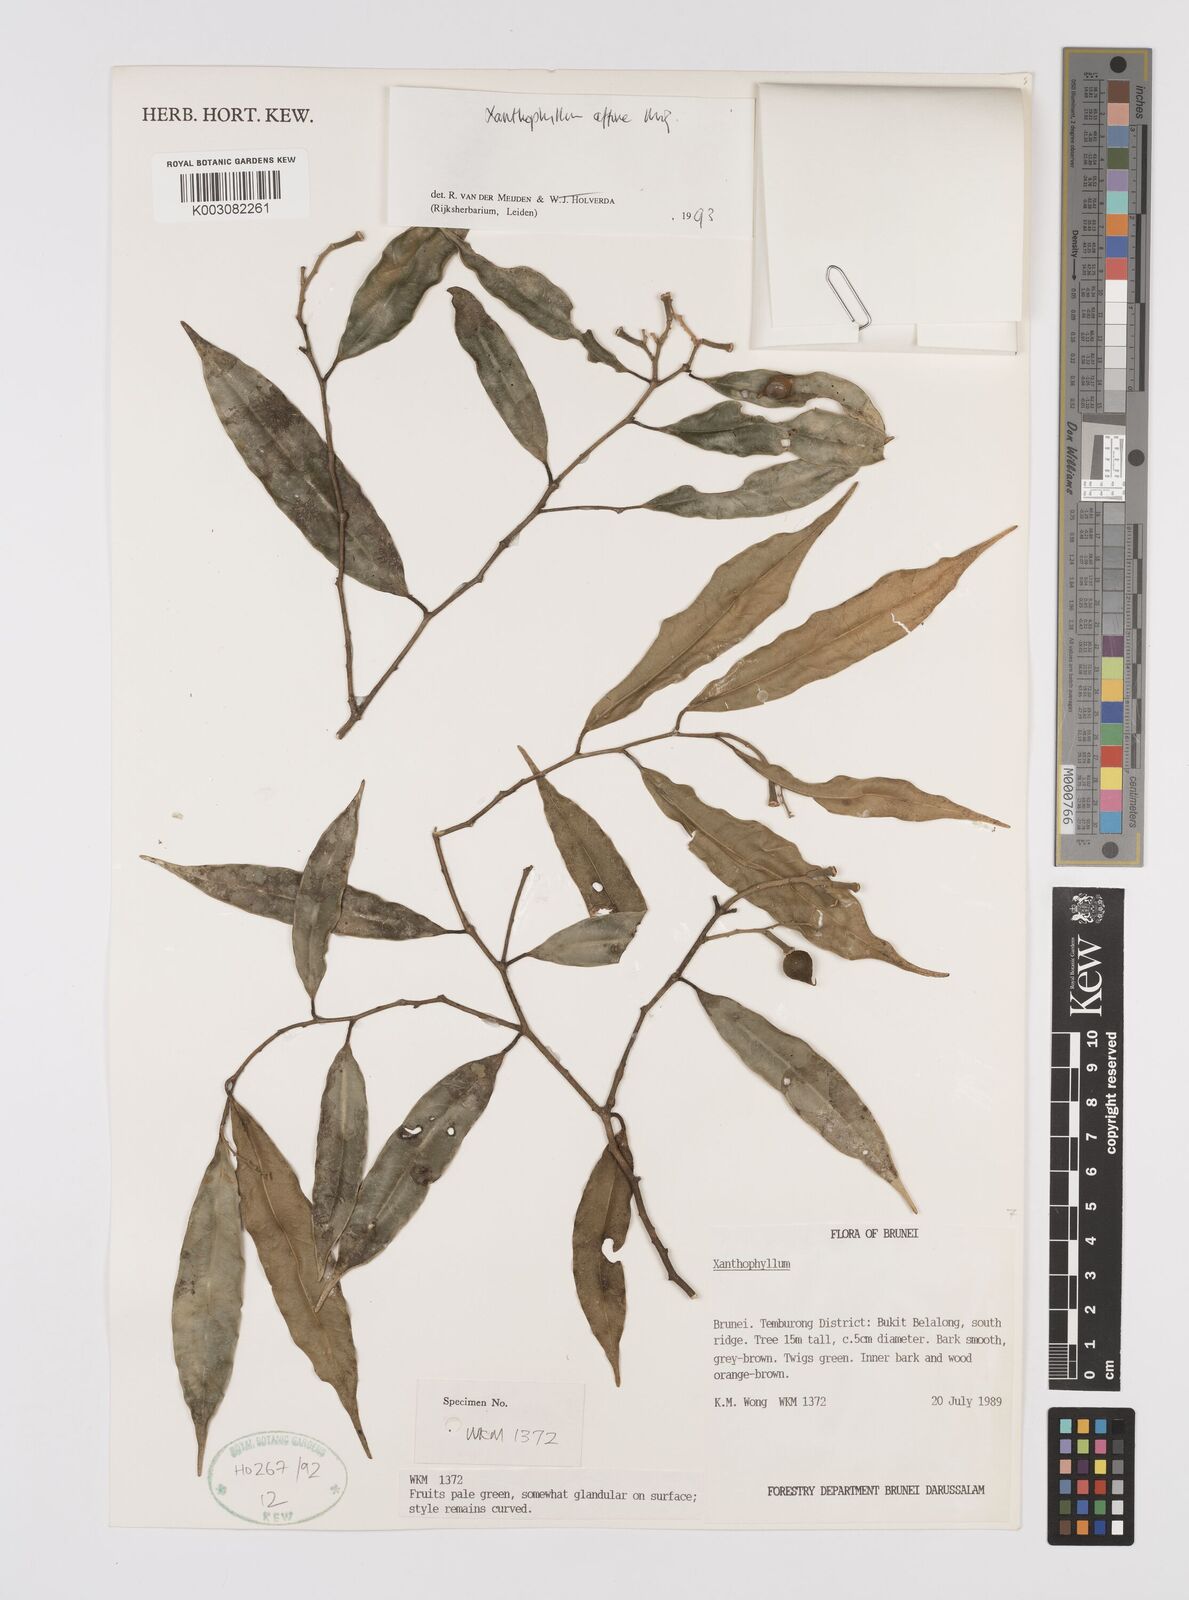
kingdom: Plantae
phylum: Tracheophyta
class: Magnoliopsida
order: Fabales
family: Polygalaceae
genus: Xanthophyllum
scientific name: Xanthophyllum flavescens
